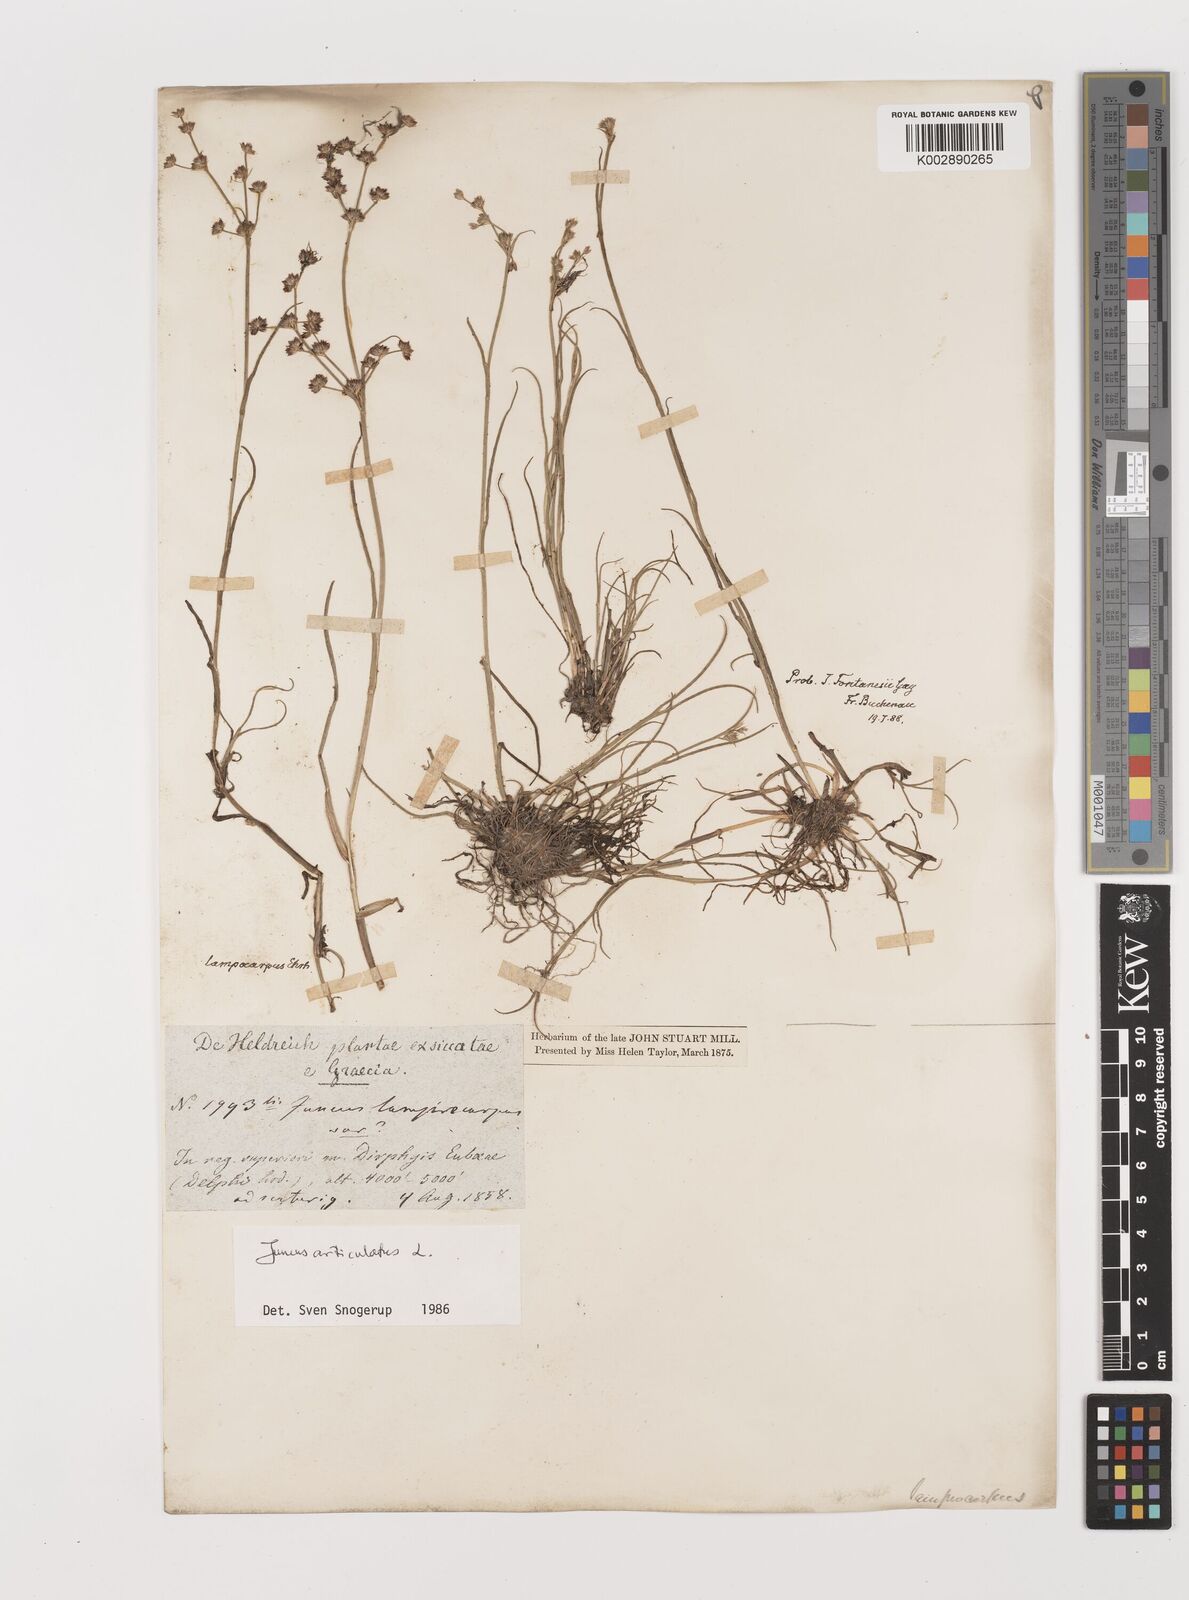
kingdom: Plantae
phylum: Tracheophyta
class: Liliopsida
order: Poales
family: Juncaceae
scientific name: Juncaceae
